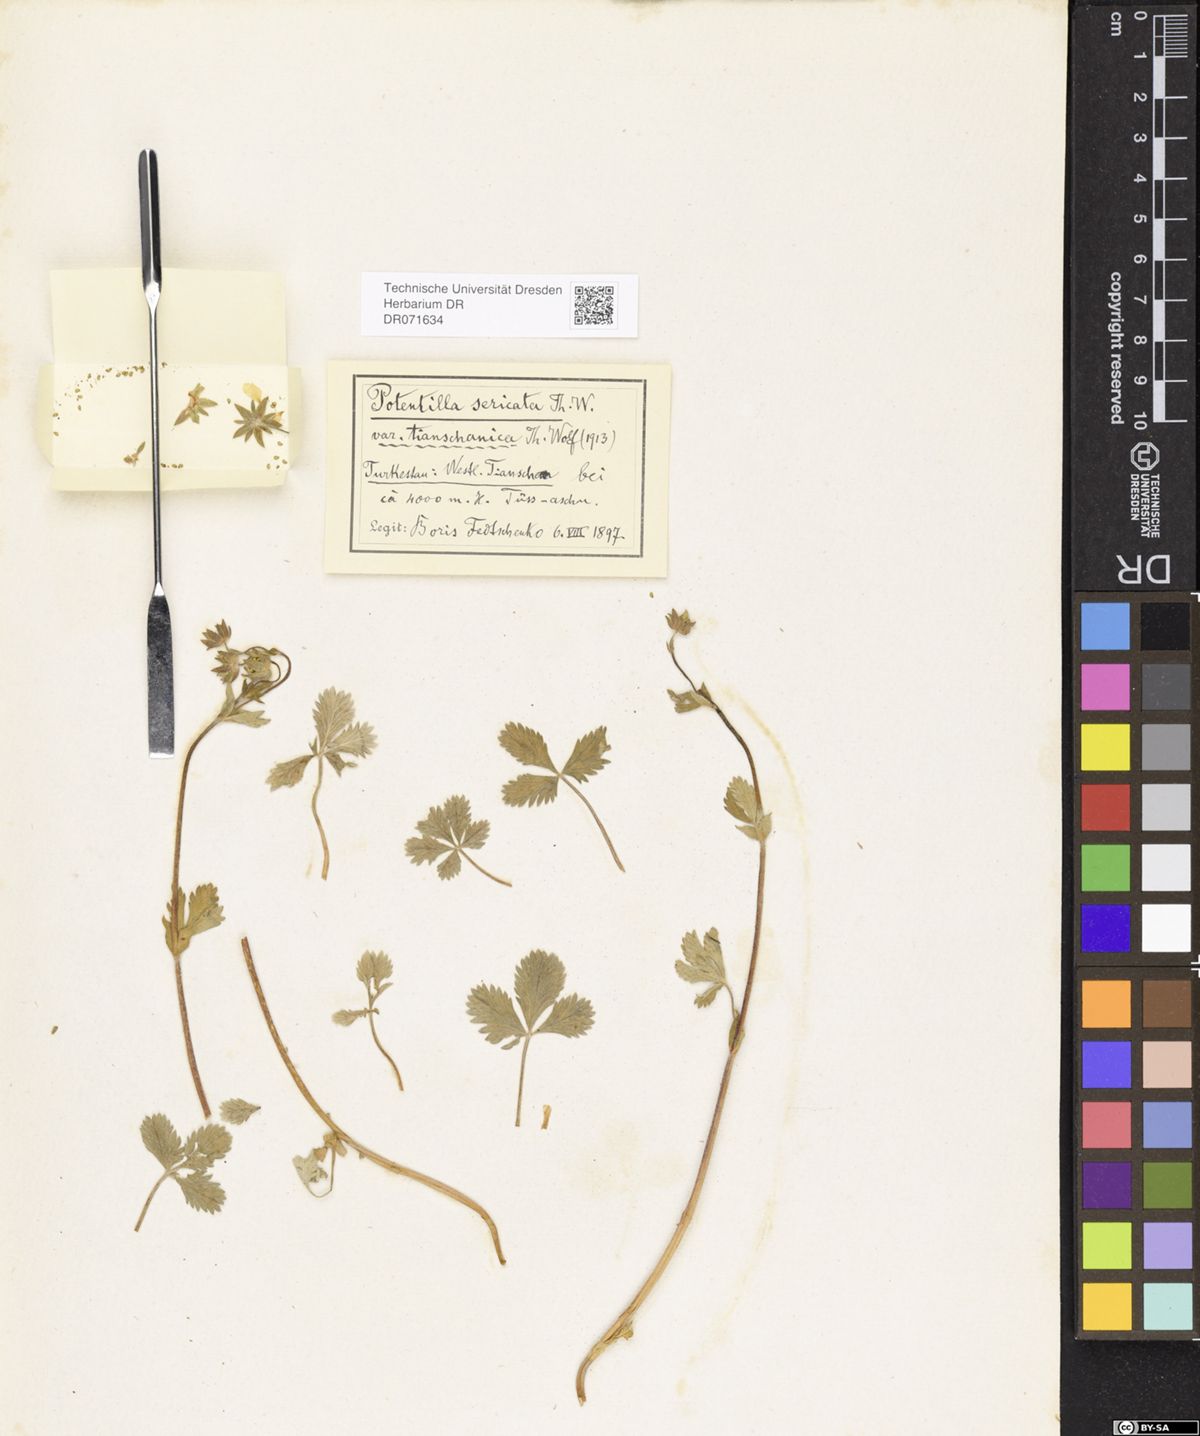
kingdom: Plantae
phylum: Tracheophyta
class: Magnoliopsida
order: Rosales
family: Rosaceae
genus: Potentilla
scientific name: Potentilla algida
